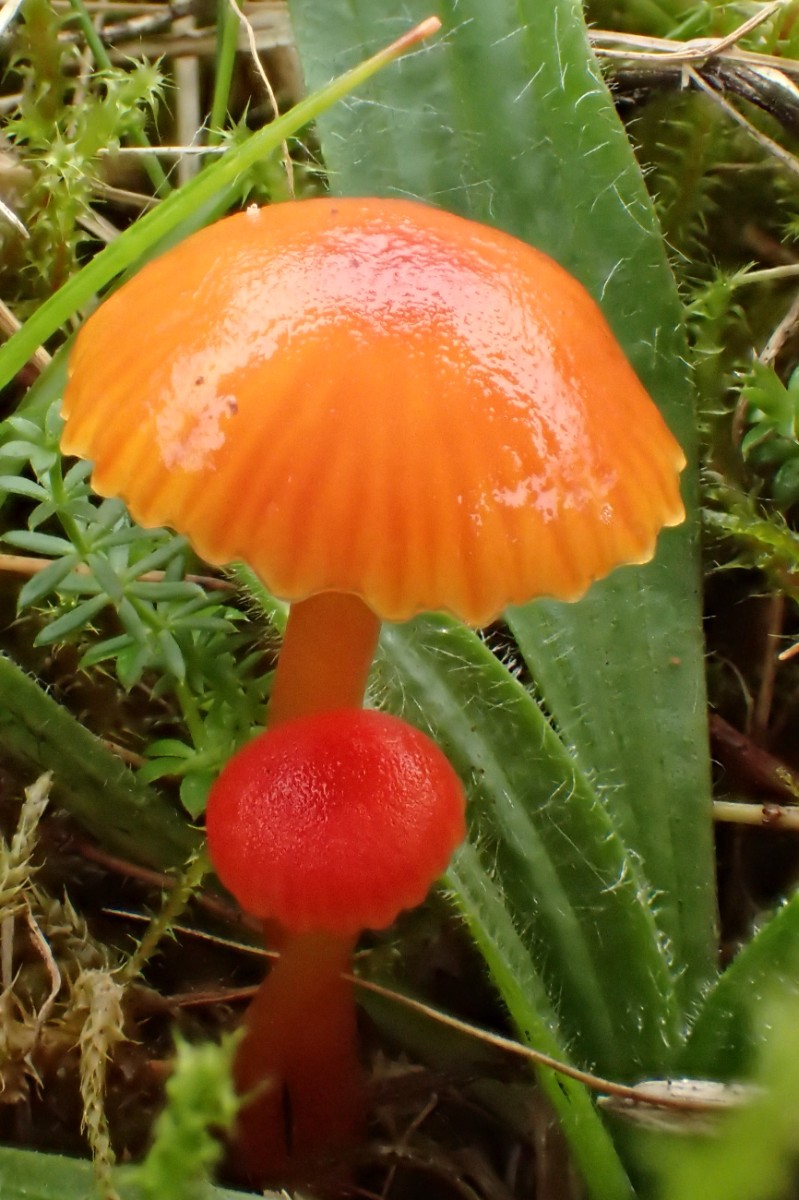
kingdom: Fungi
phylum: Basidiomycota
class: Agaricomycetes
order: Agaricales
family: Hygrophoraceae
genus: Hygrocybe
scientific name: Hygrocybe insipida
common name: liden vokshat
